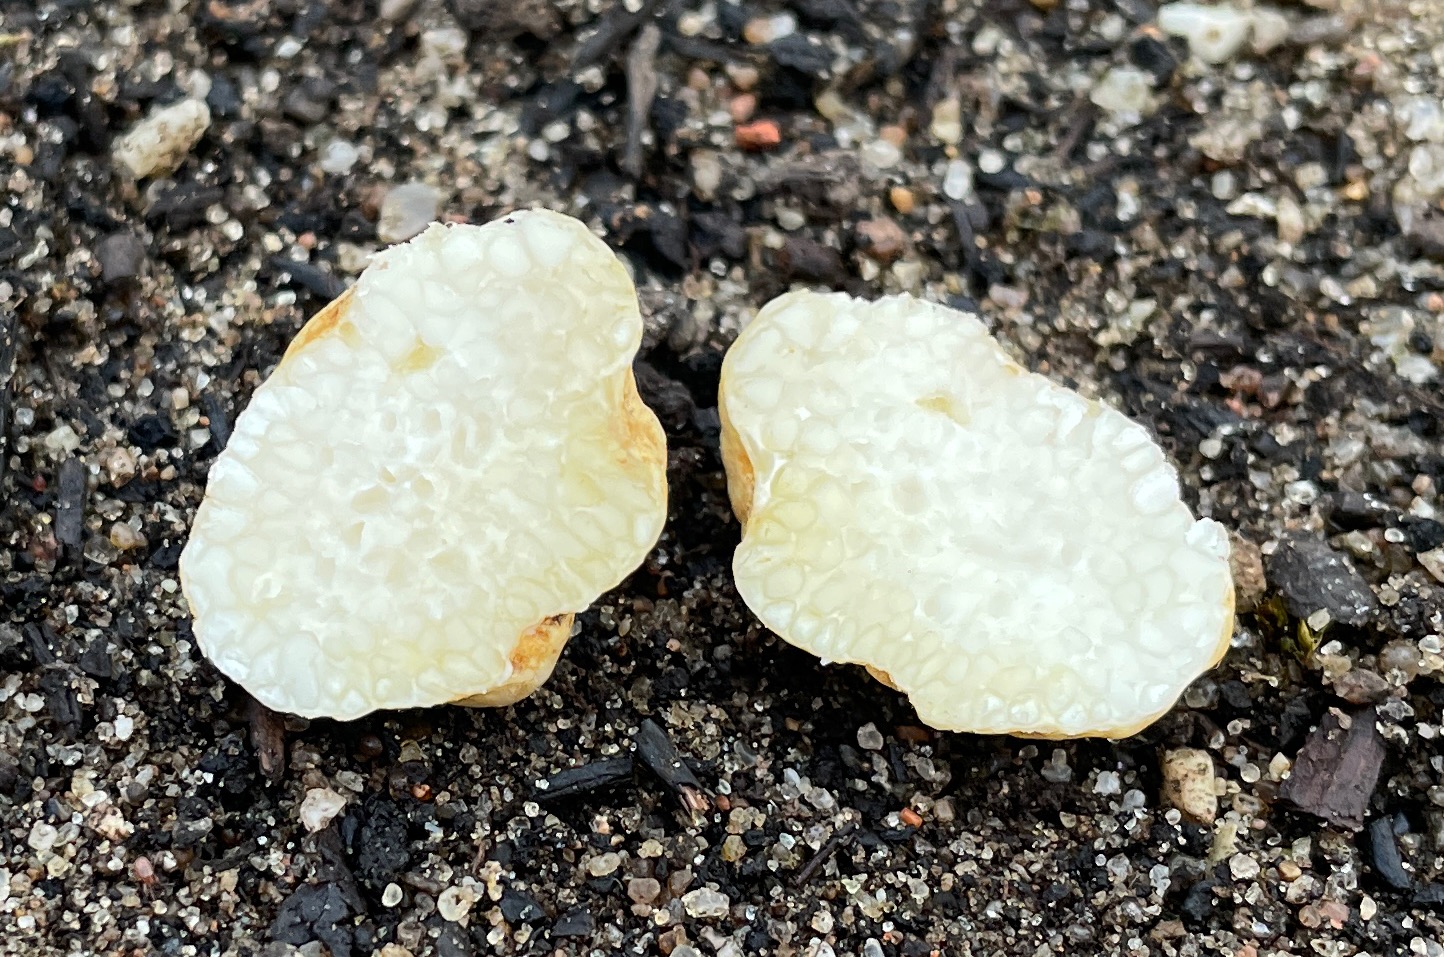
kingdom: Fungi
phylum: Basidiomycota
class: Agaricomycetes
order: Russulales
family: Albatrellaceae
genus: Leucogaster
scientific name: Leucogaster nudus
